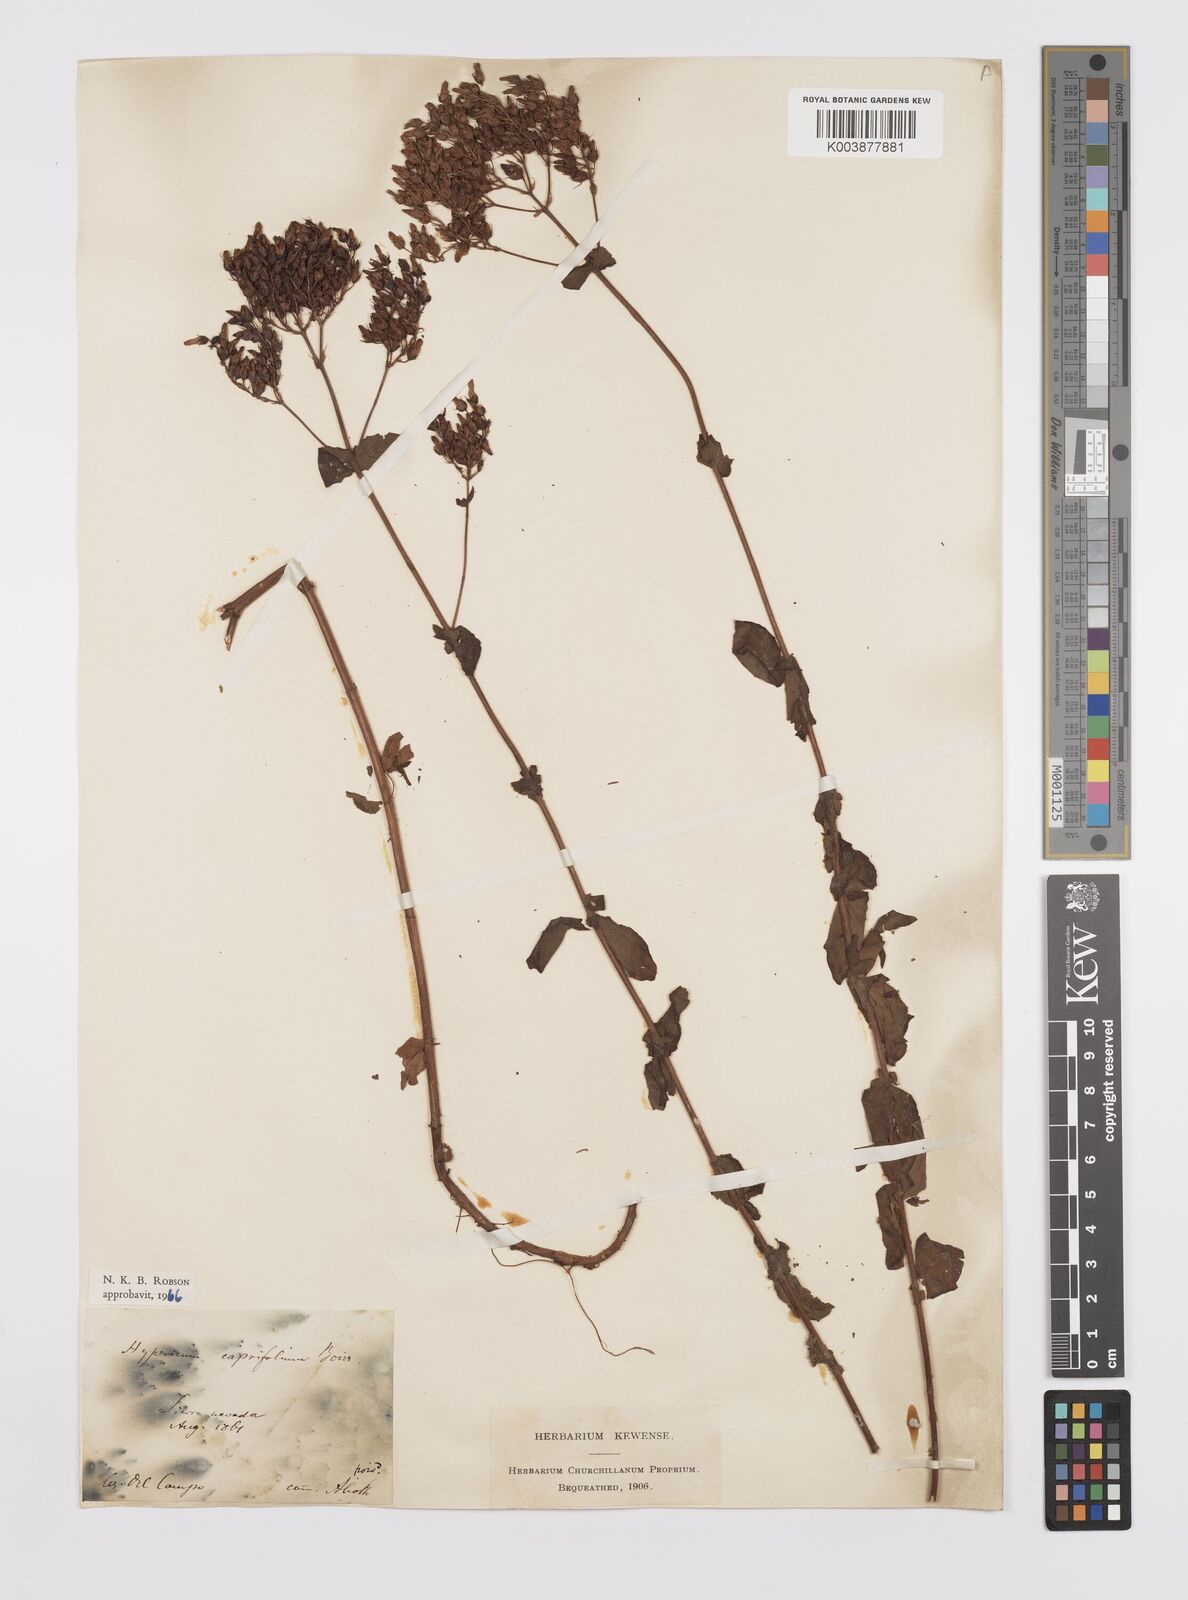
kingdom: Plantae
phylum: Tracheophyta
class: Magnoliopsida
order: Malpighiales
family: Hypericaceae
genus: Hypericum
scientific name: Hypericum caprifolium
